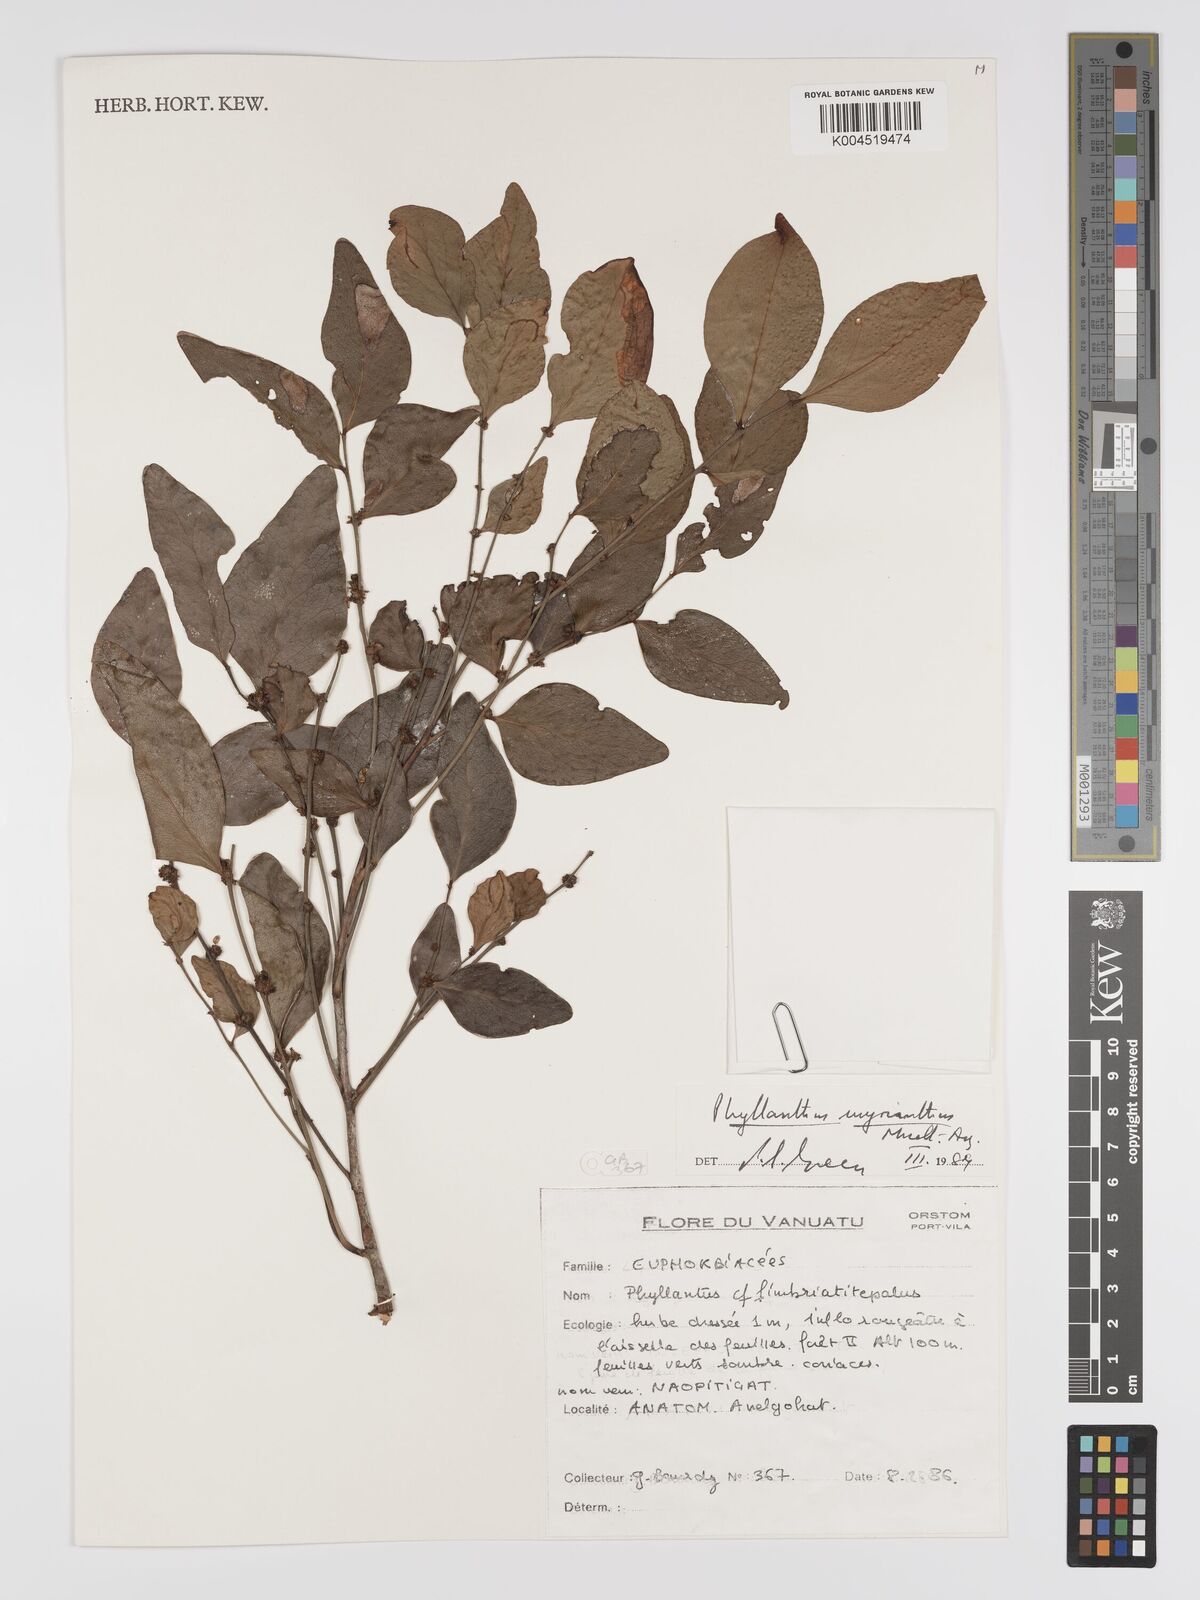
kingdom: Plantae
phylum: Tracheophyta
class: Magnoliopsida
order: Malpighiales
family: Phyllanthaceae
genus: Glochidion
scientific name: Glochidion myrianthum
